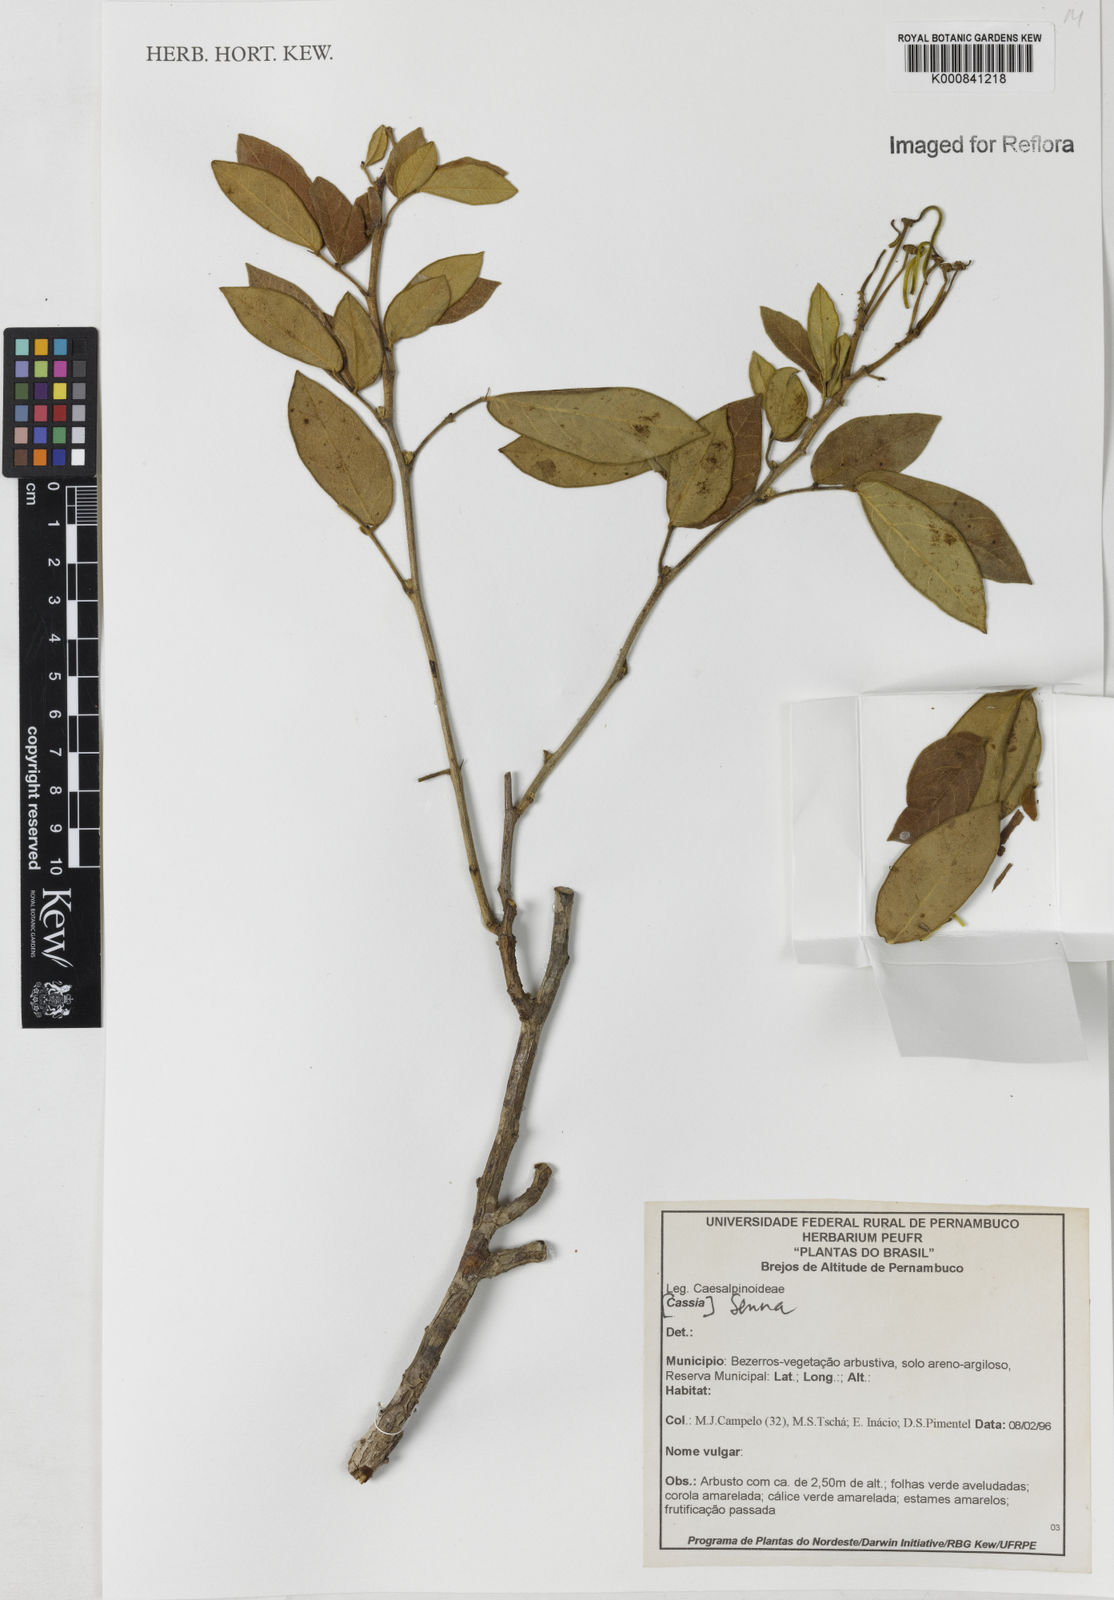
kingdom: Plantae
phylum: Tracheophyta
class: Magnoliopsida
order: Fabales
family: Fabaceae
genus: Senna
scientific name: Senna macranthera
